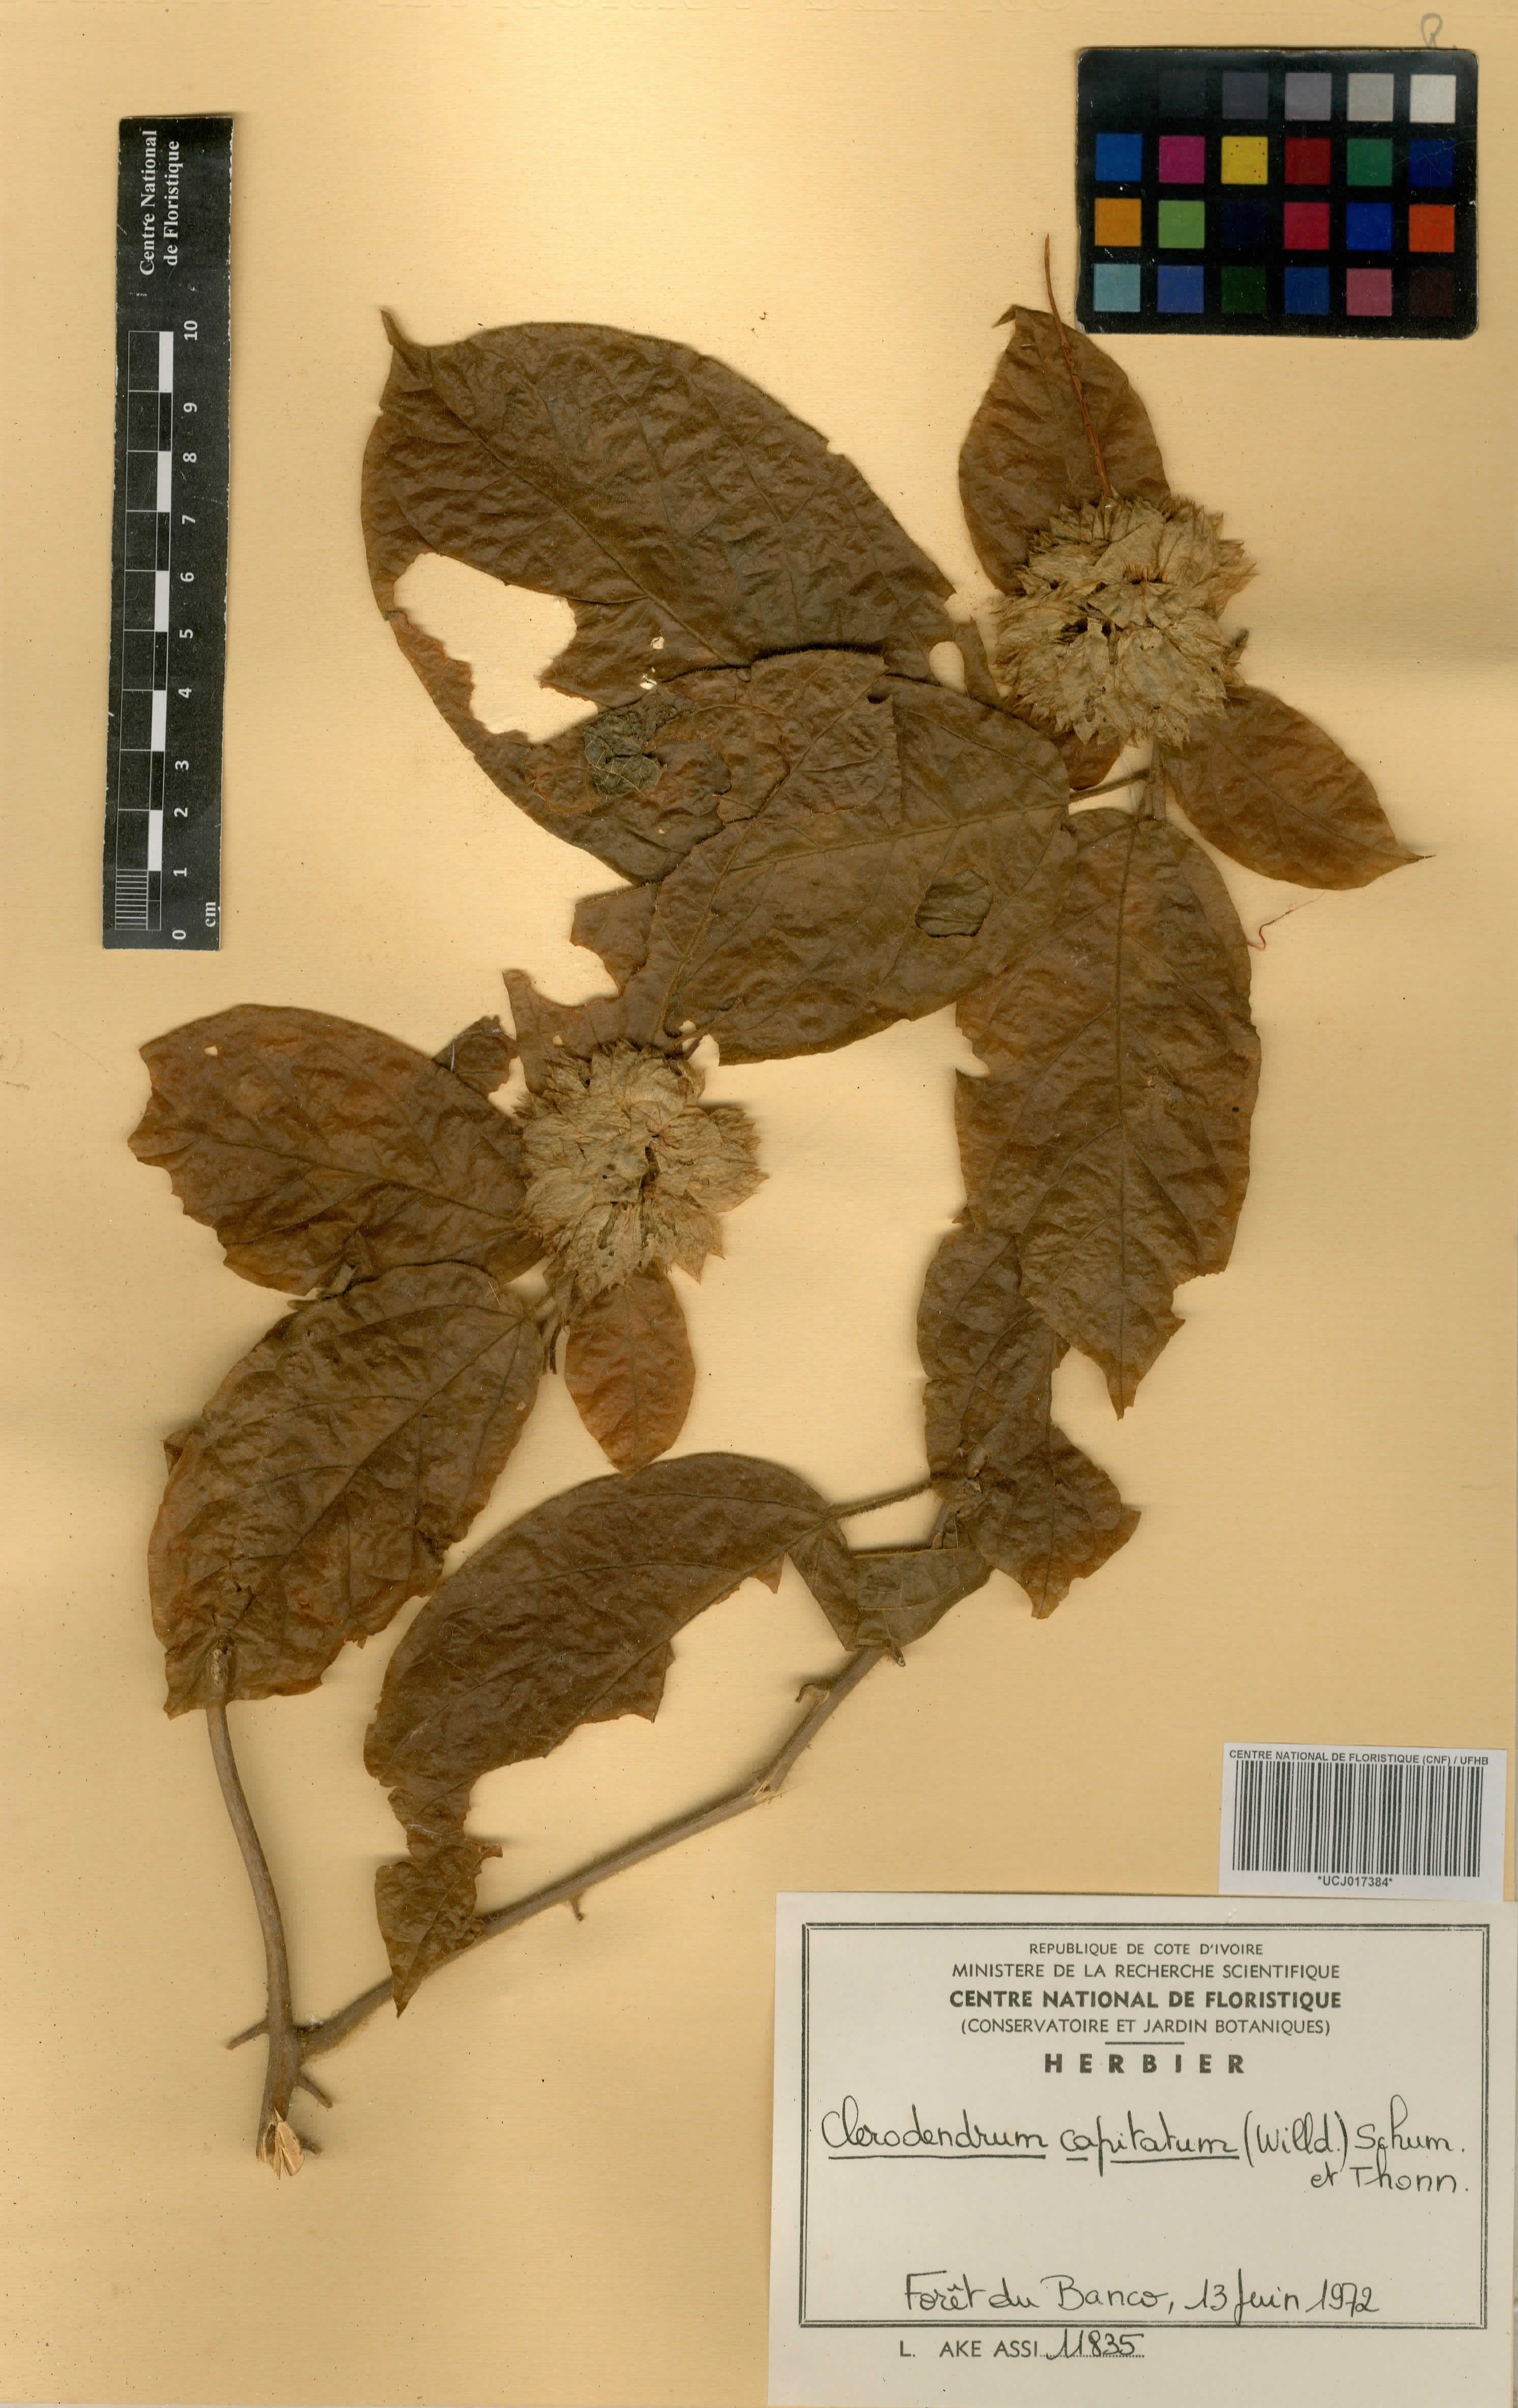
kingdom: Plantae
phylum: Tracheophyta
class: Magnoliopsida
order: Lamiales
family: Lamiaceae
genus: Clerodendrum
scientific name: Clerodendrum capitatum
